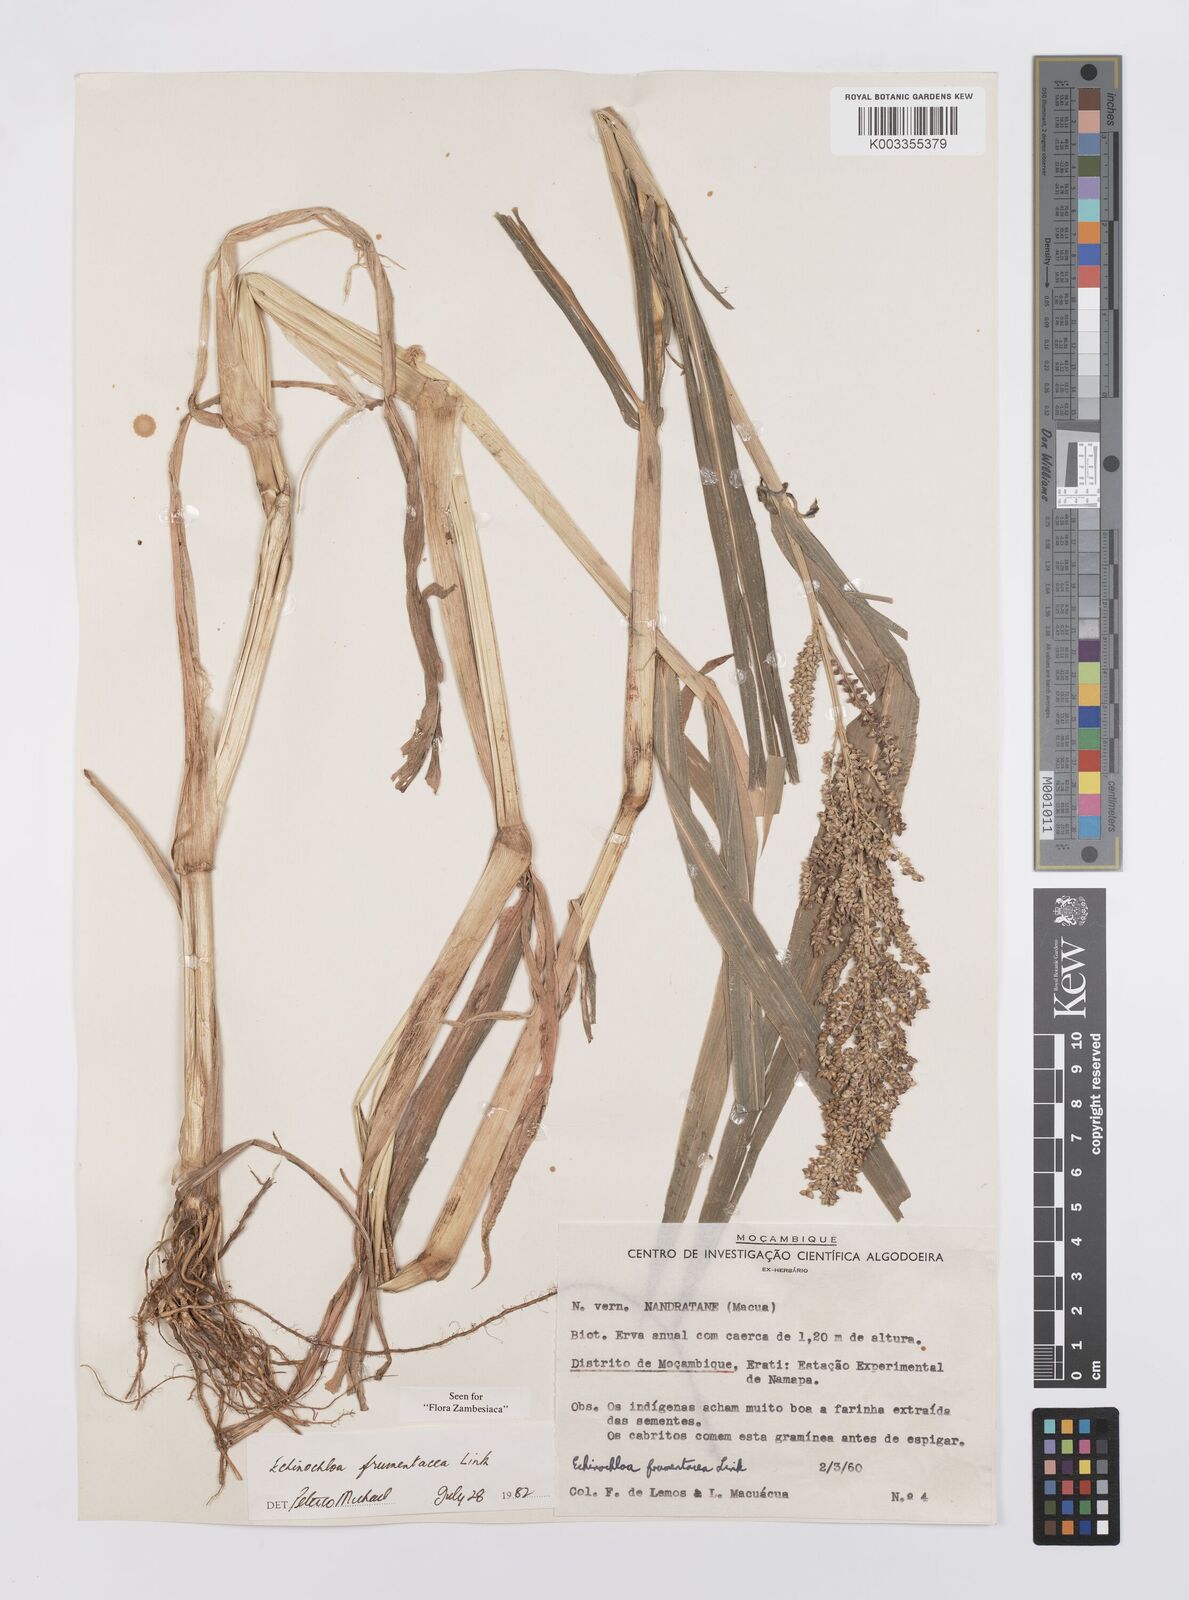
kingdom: Plantae
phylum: Tracheophyta
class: Liliopsida
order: Poales
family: Poaceae
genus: Echinochloa
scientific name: Echinochloa frumentacea
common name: Billion-dollar grass
